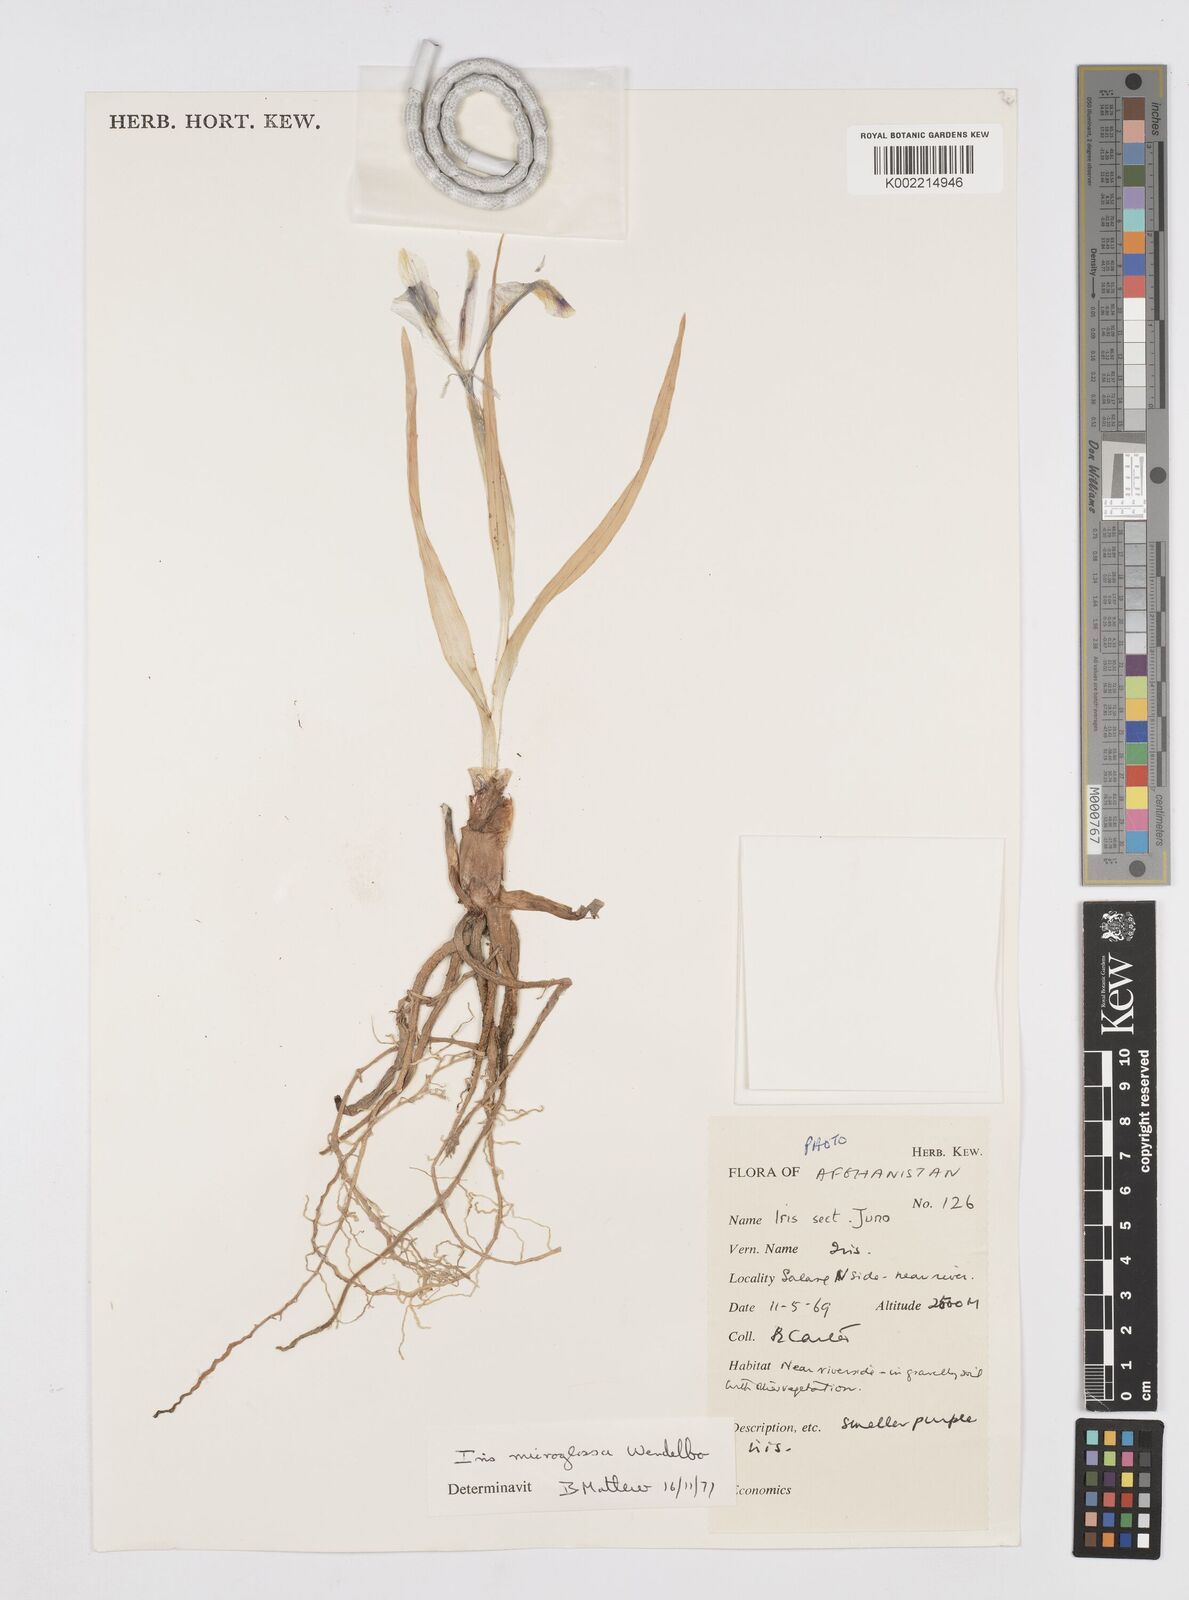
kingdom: Plantae
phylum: Tracheophyta
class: Liliopsida
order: Asparagales
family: Iridaceae
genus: Iris
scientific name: Iris microglossa
